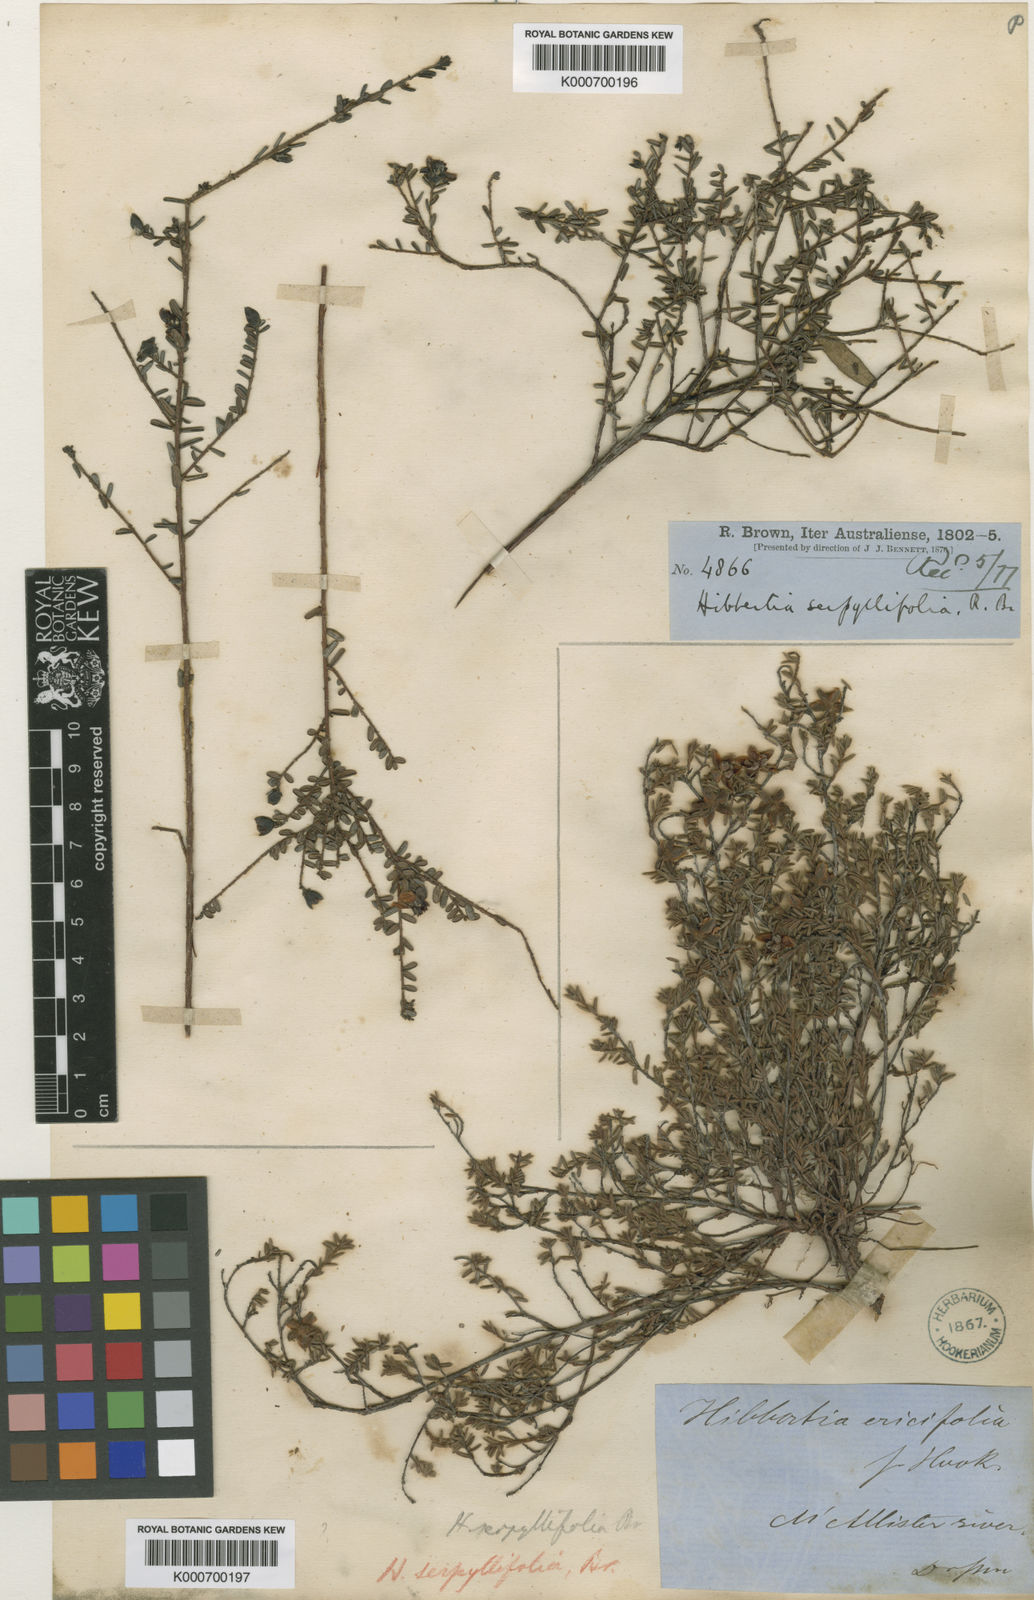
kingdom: Plantae
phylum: Tracheophyta
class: Magnoliopsida
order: Dilleniales
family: Dilleniaceae
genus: Hibbertia
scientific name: Hibbertia serpyllifolia
